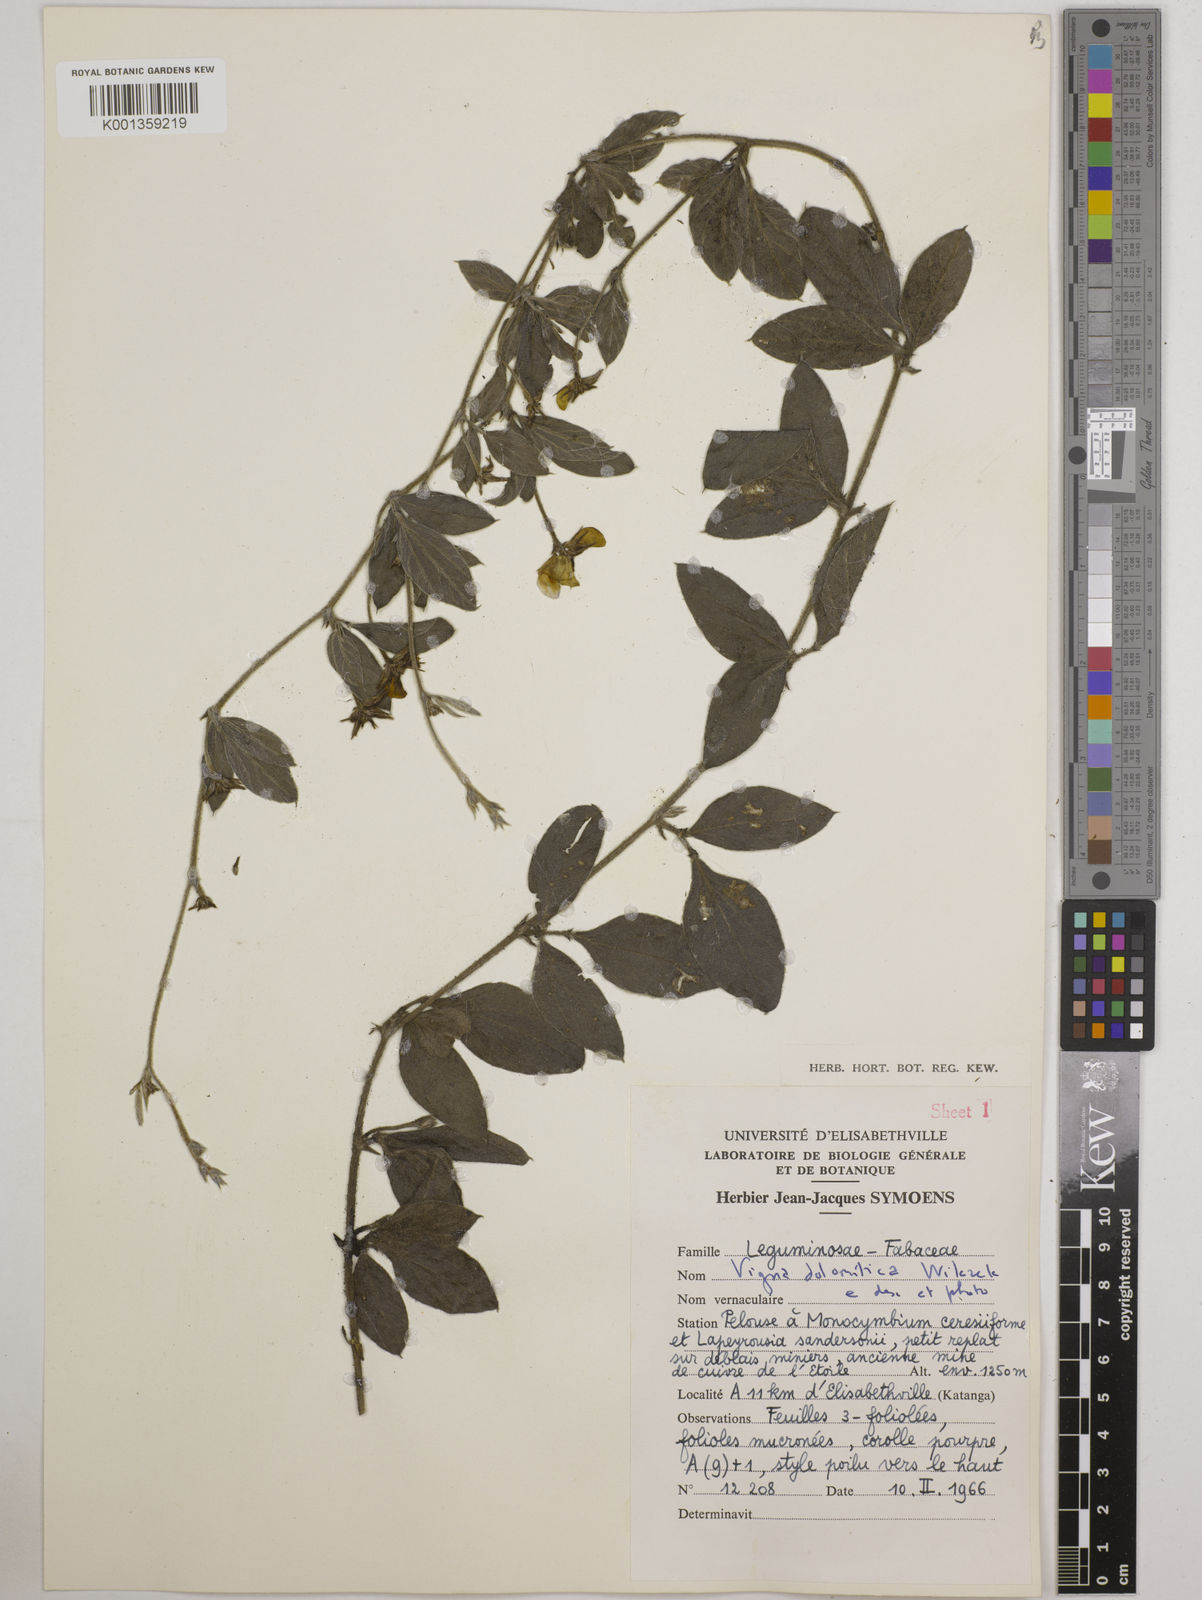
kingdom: Plantae
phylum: Tracheophyta
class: Magnoliopsida
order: Fabales
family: Fabaceae
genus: Vigna
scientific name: Vigna dolomitica
